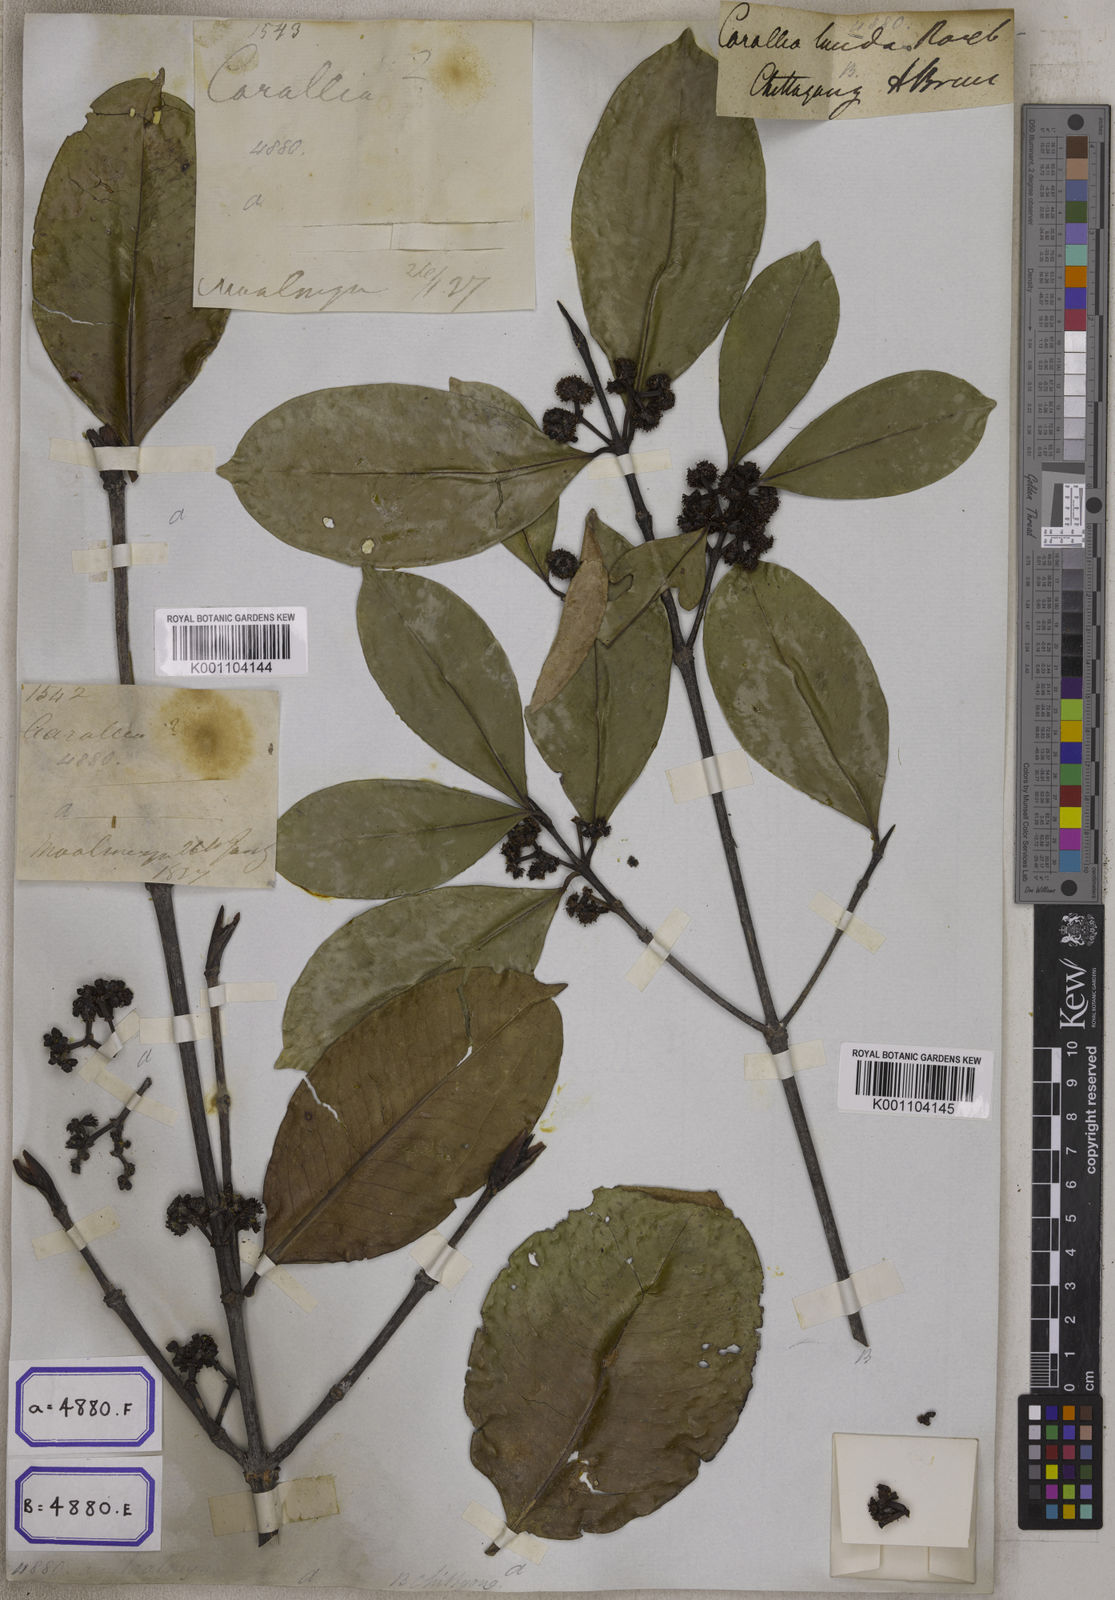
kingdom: Plantae
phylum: Tracheophyta
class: Magnoliopsida
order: Malpighiales
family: Rhizophoraceae
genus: Carallia
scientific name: Carallia brachiata
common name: Carallawood
